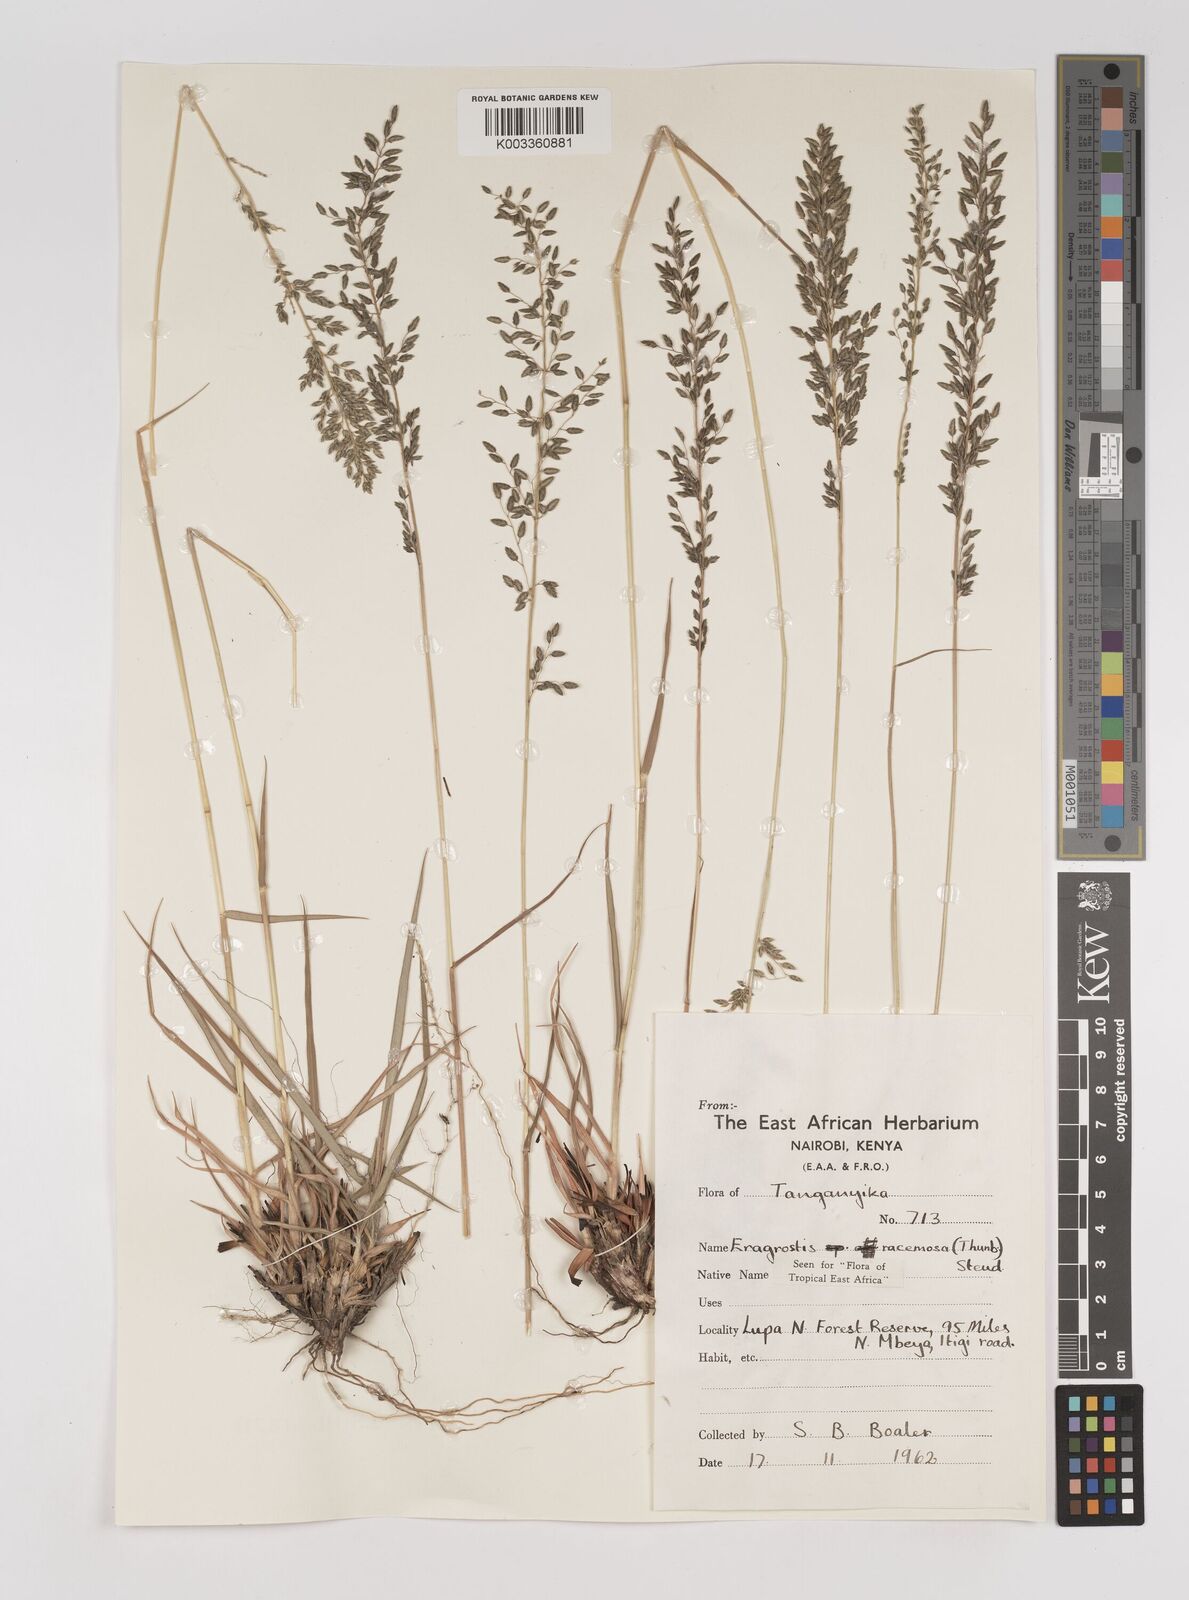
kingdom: Plantae
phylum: Tracheophyta
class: Liliopsida
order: Poales
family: Poaceae
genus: Eragrostis
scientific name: Eragrostis racemosa
